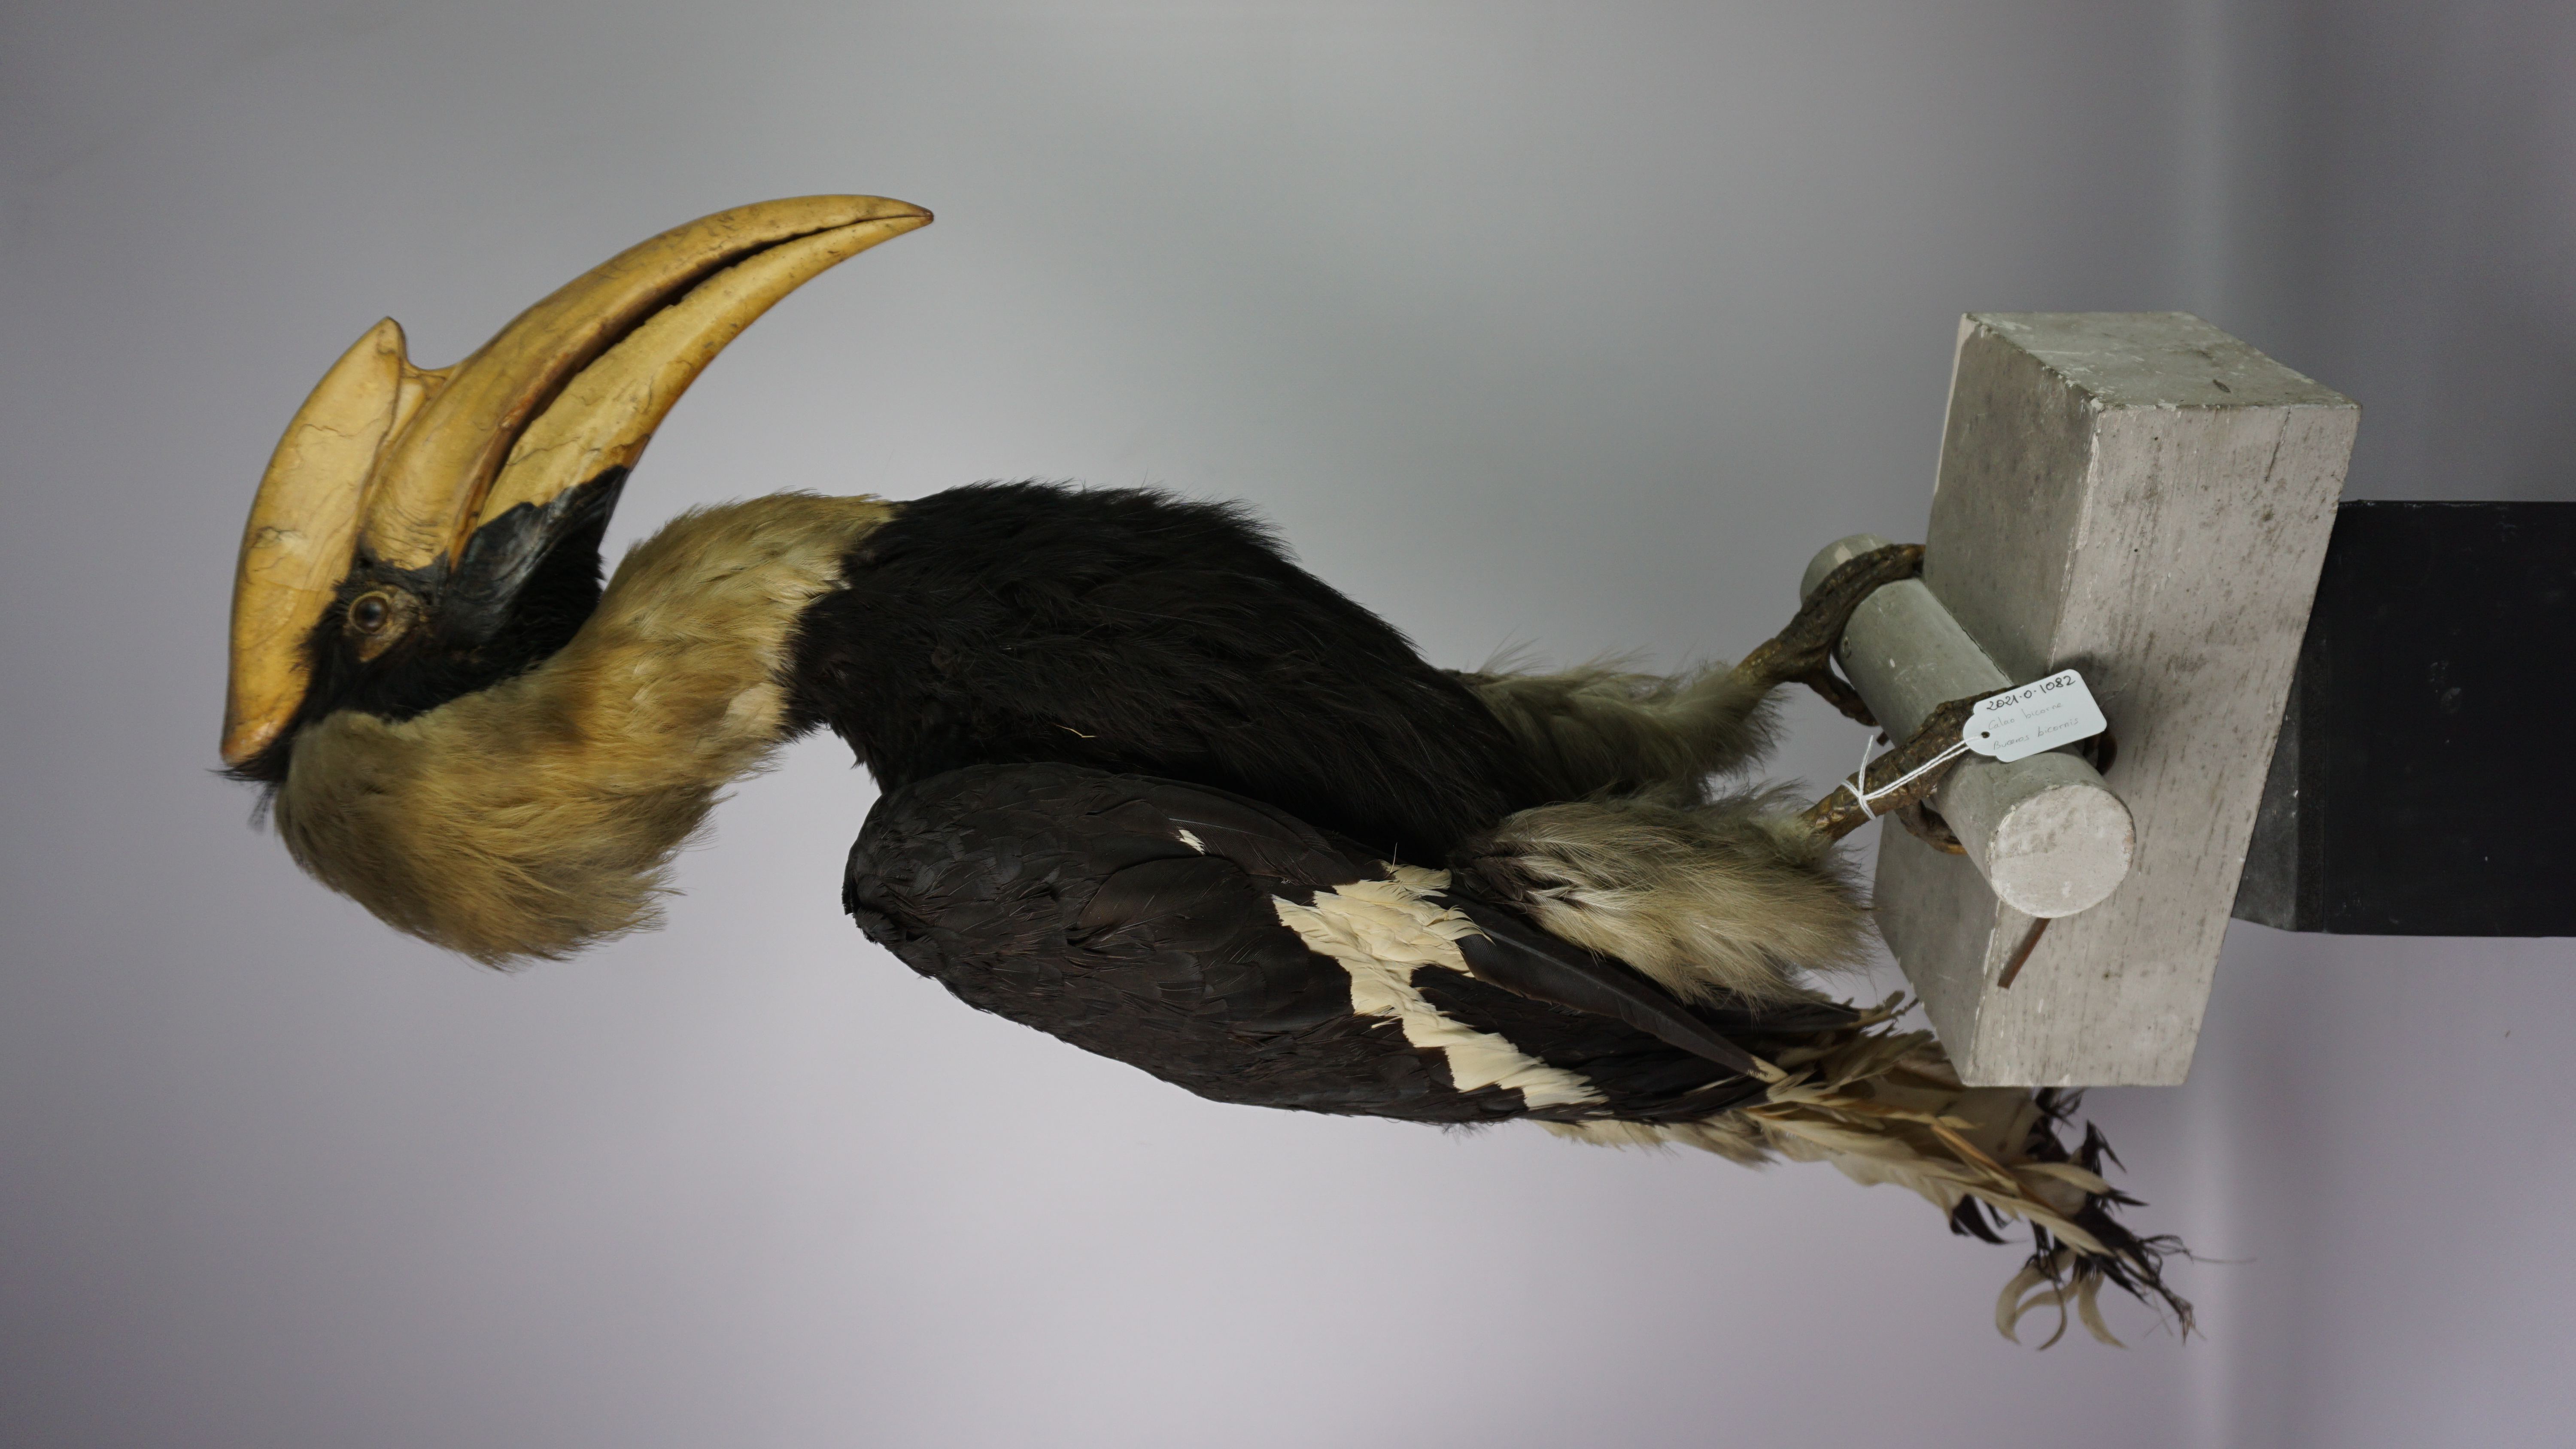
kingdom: Animalia
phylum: Chordata
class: Aves
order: Bucerotiformes
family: Bucerotidae
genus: Buceros
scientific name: Buceros bicornis
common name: Great hornbill
